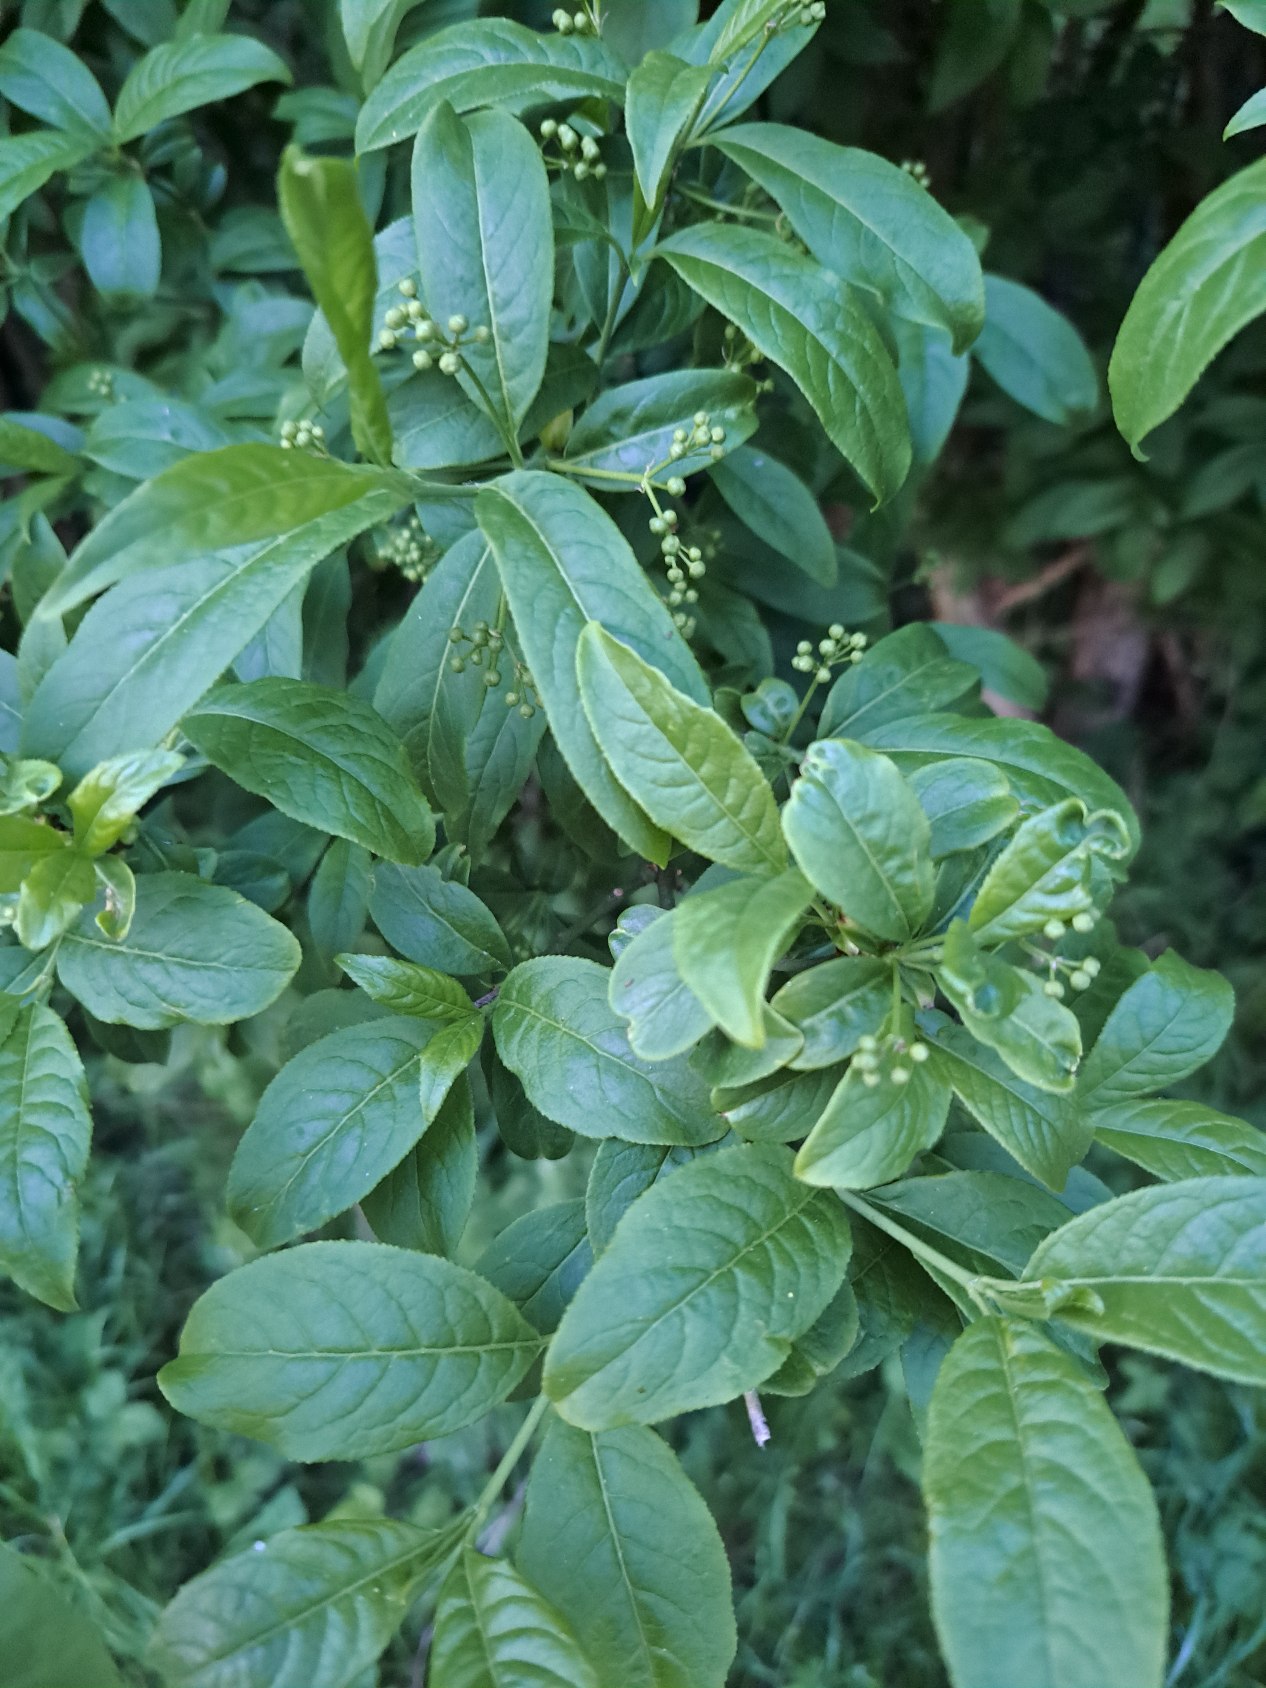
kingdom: Plantae
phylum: Tracheophyta
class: Magnoliopsida
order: Celastrales
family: Celastraceae
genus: Euonymus
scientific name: Euonymus europaeus
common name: Benved
